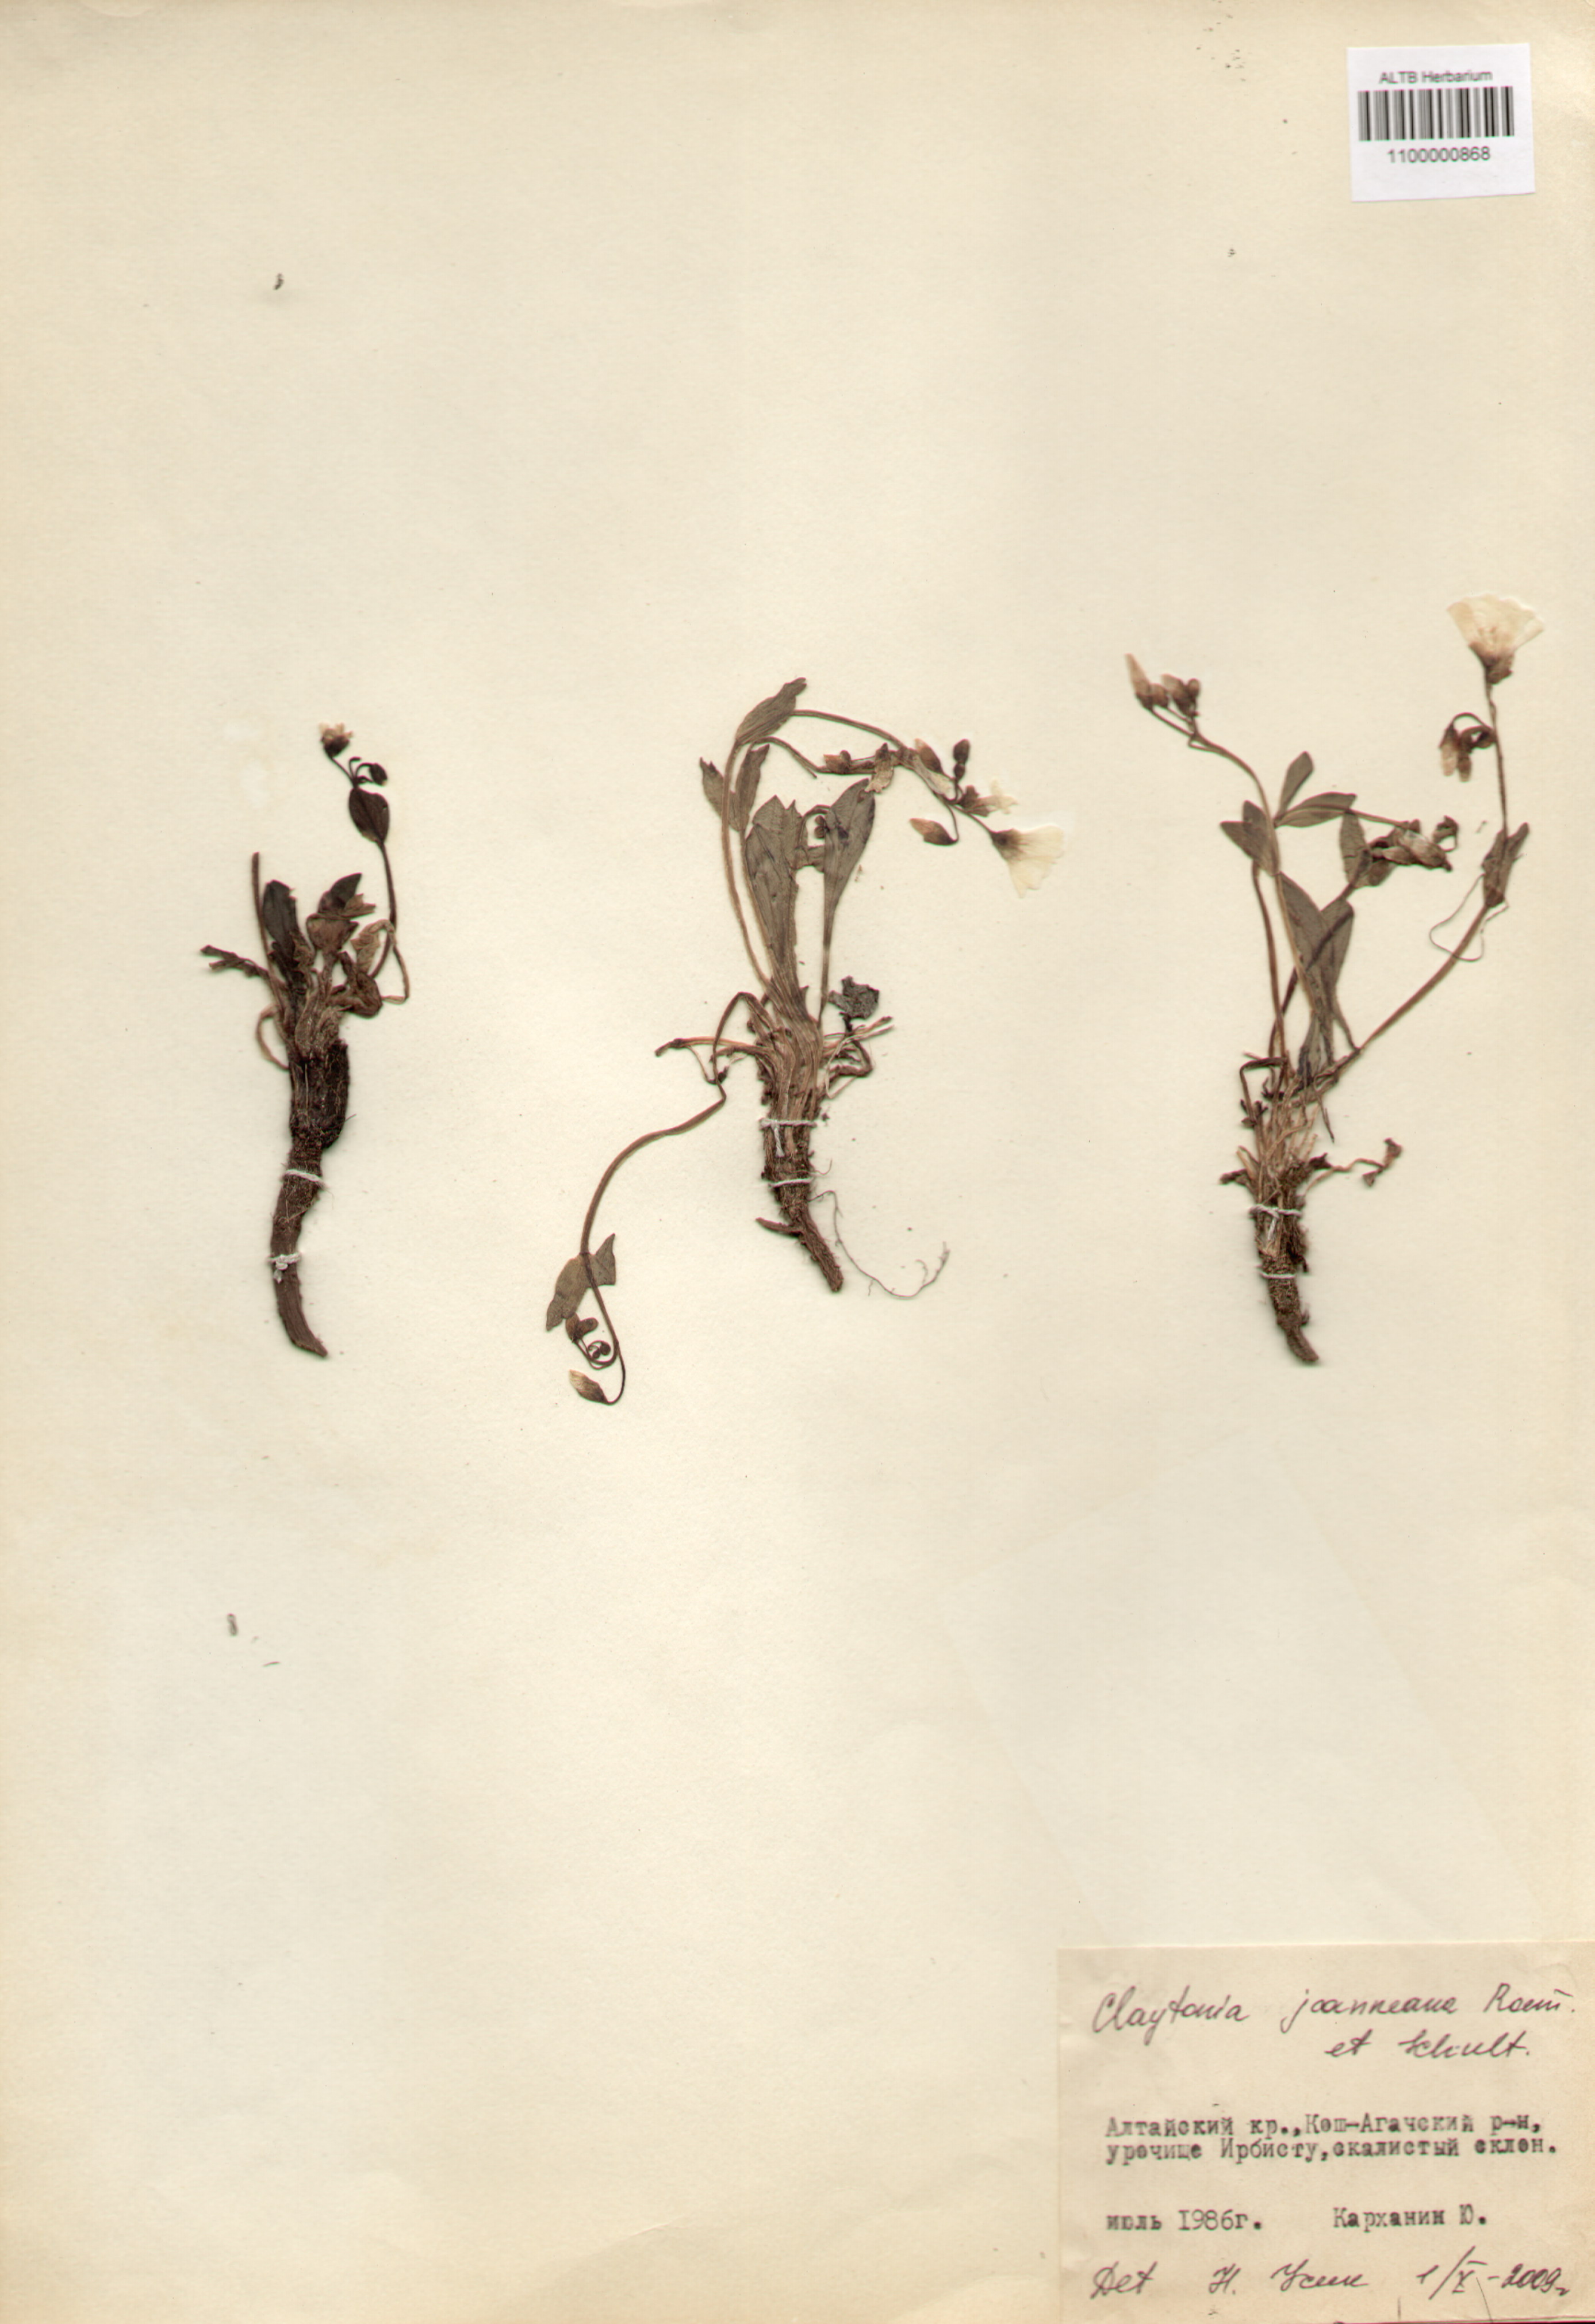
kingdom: Plantae
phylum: Tracheophyta
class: Magnoliopsida
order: Caryophyllales
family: Montiaceae
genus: Claytonia
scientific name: Claytonia joanneana
